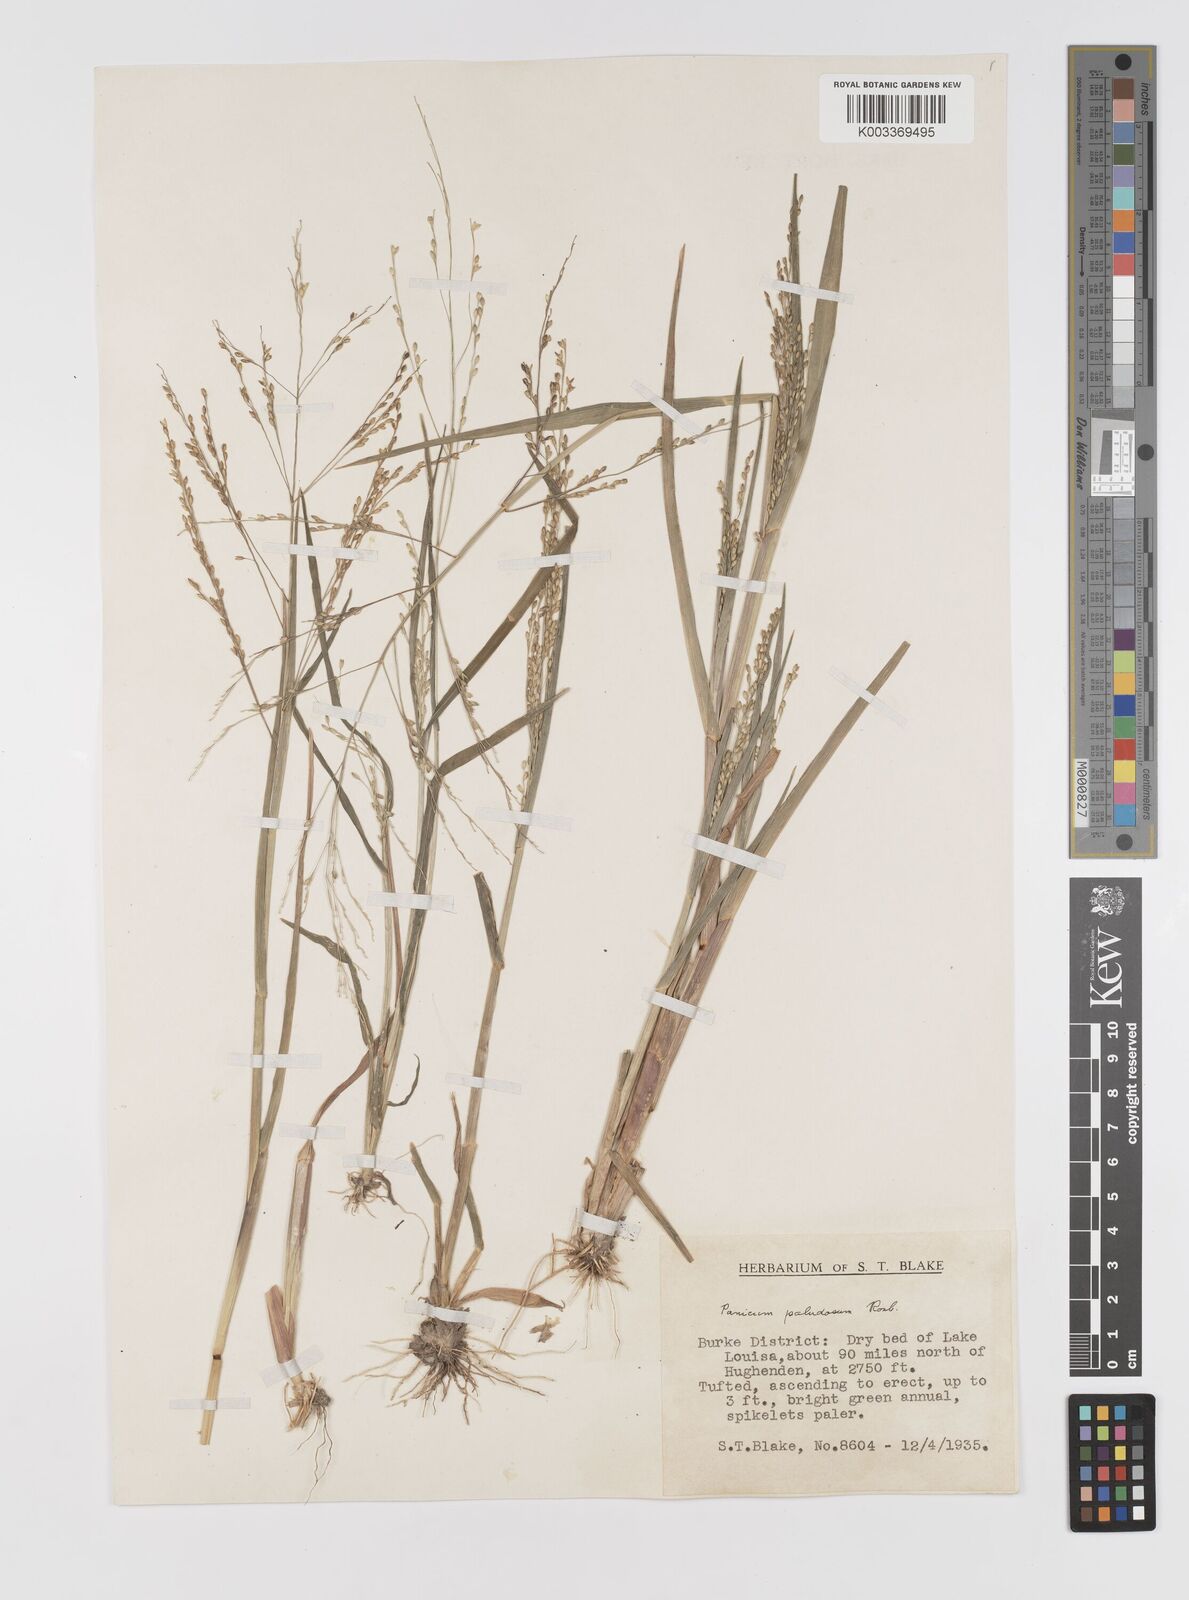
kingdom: Plantae
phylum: Tracheophyta
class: Liliopsida
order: Poales
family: Poaceae
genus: Louisiella
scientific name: Louisiella paludosa
